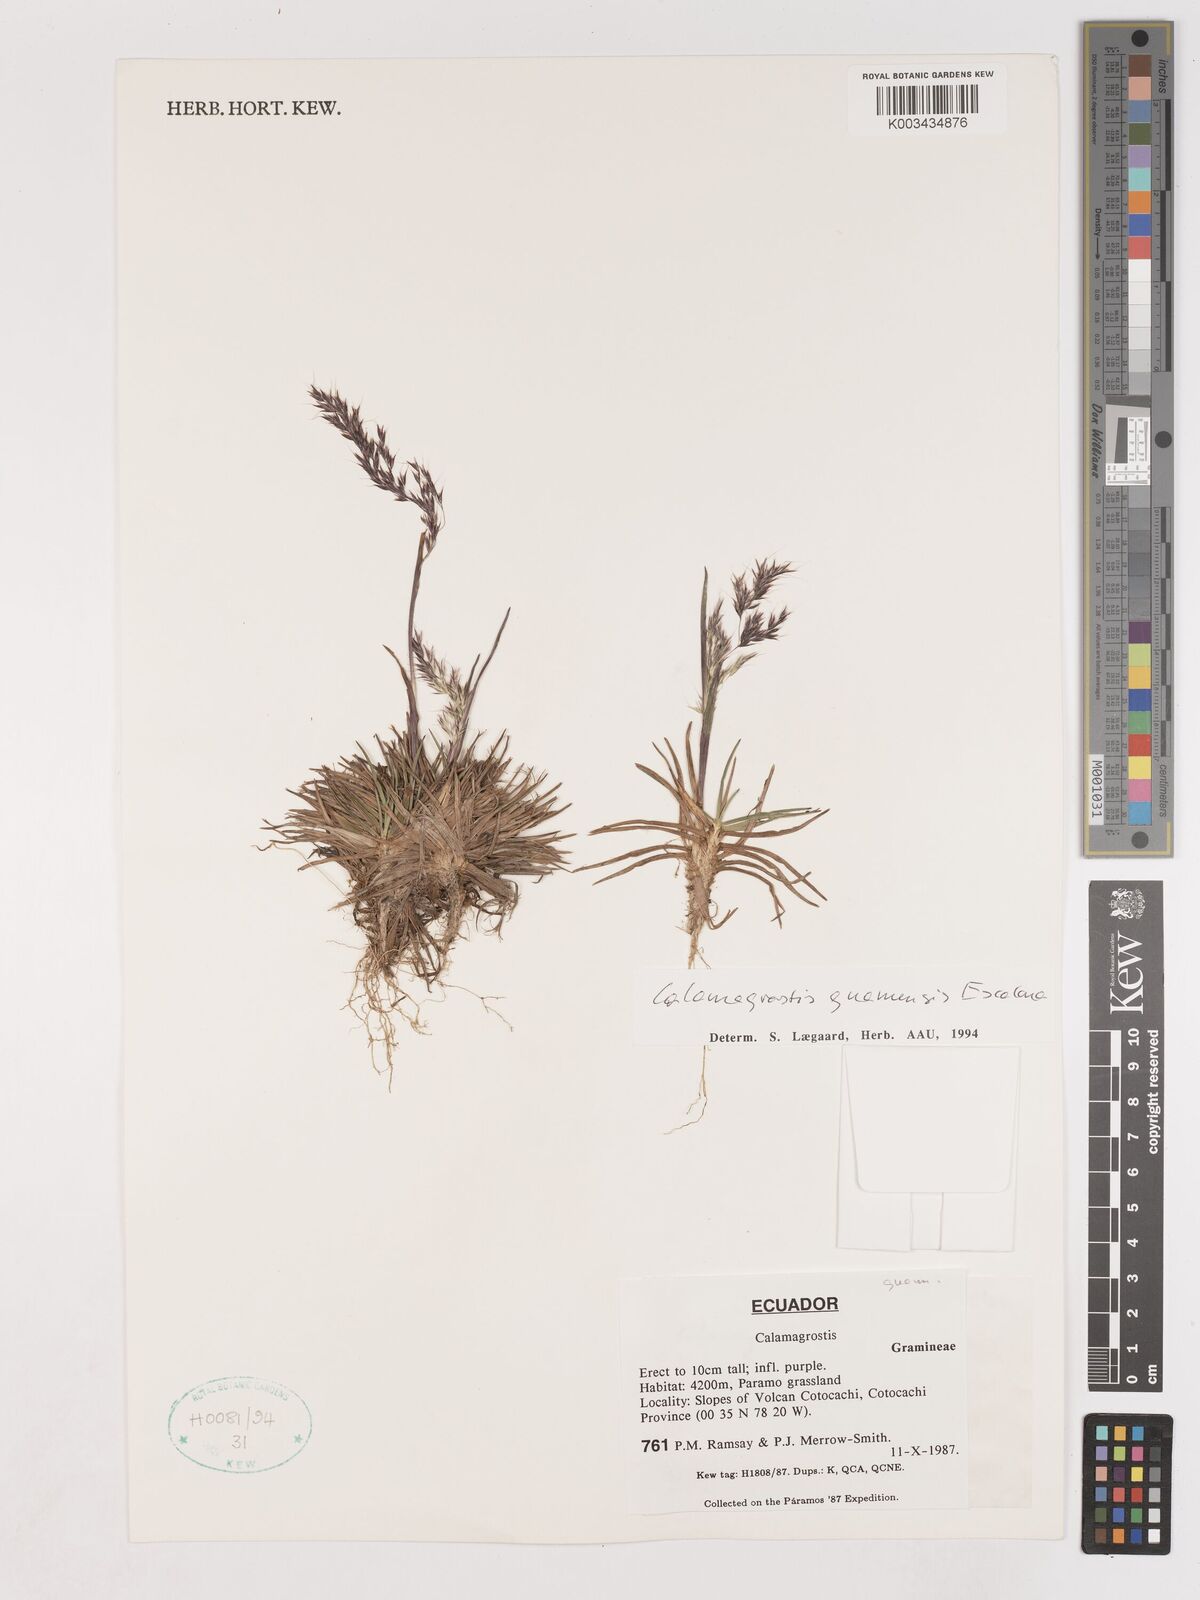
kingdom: Plantae
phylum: Tracheophyta
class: Liliopsida
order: Poales
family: Poaceae
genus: Calamagrostis
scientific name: Calamagrostis
